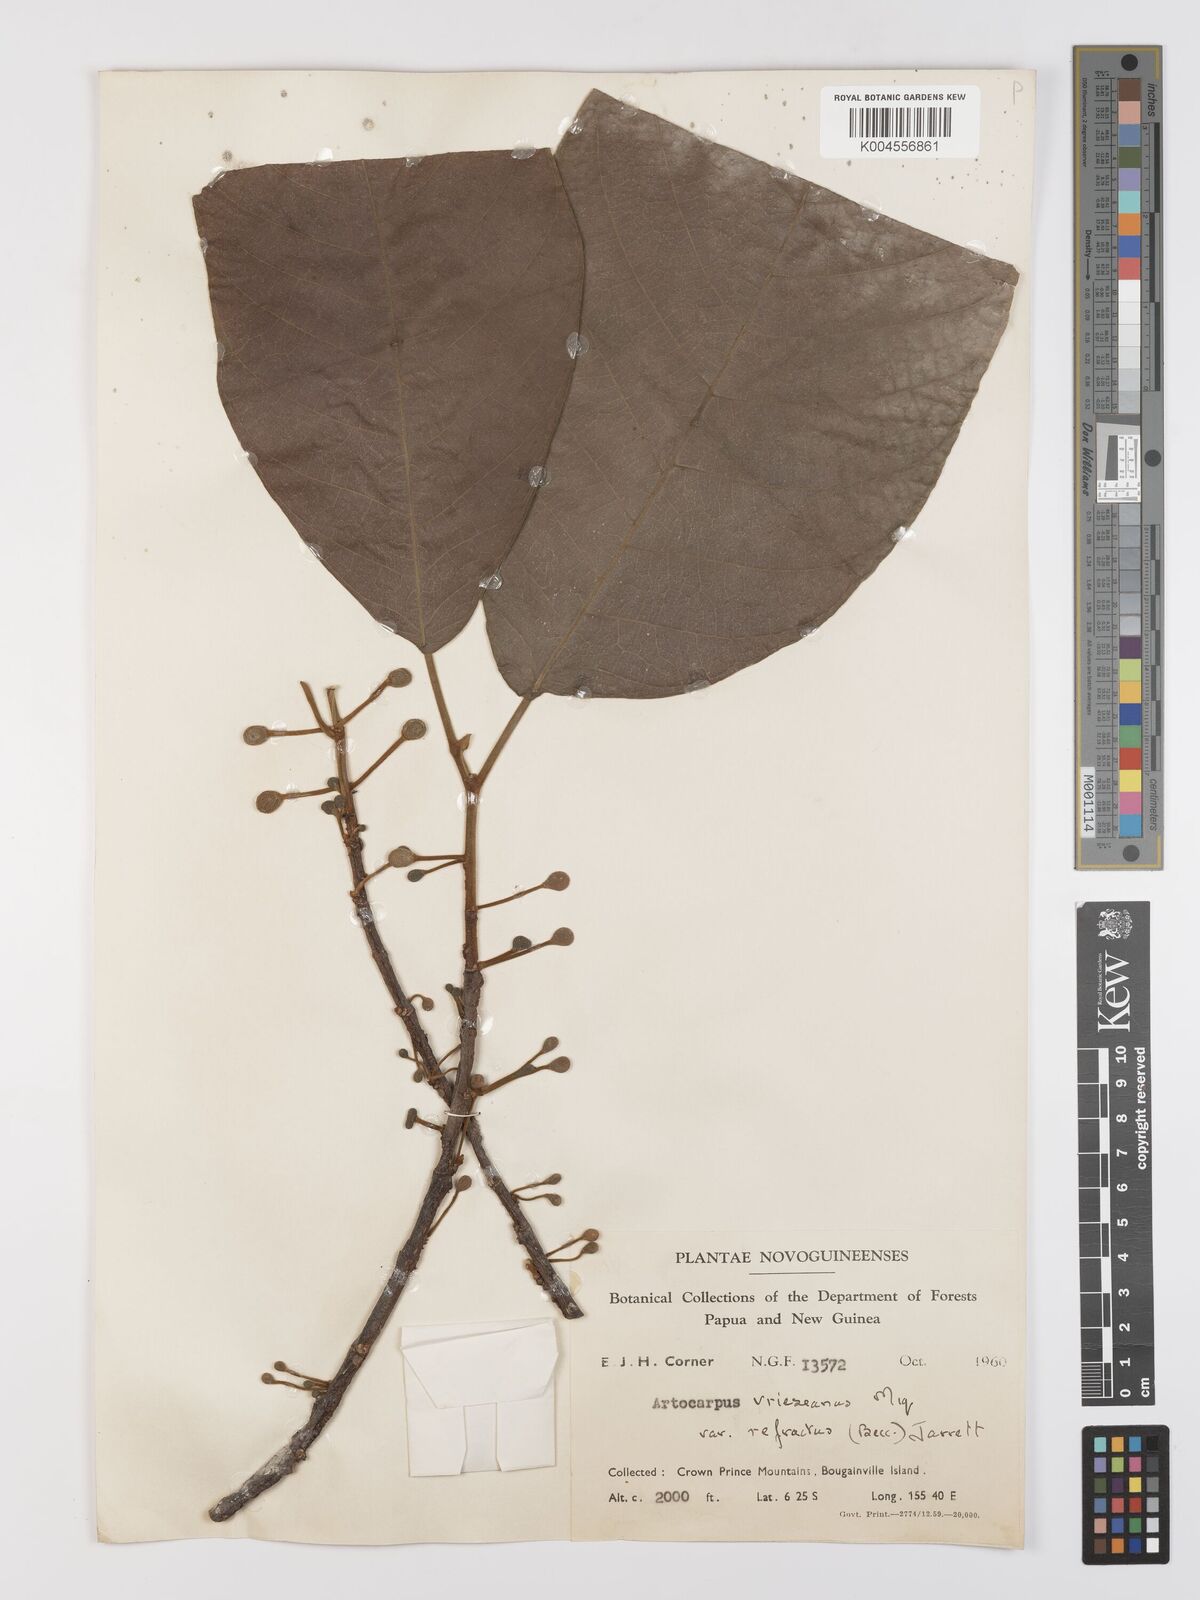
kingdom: Plantae
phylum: Tracheophyta
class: Magnoliopsida
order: Rosales
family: Moraceae
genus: Artocarpus
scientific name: Artocarpus vrieseanus
